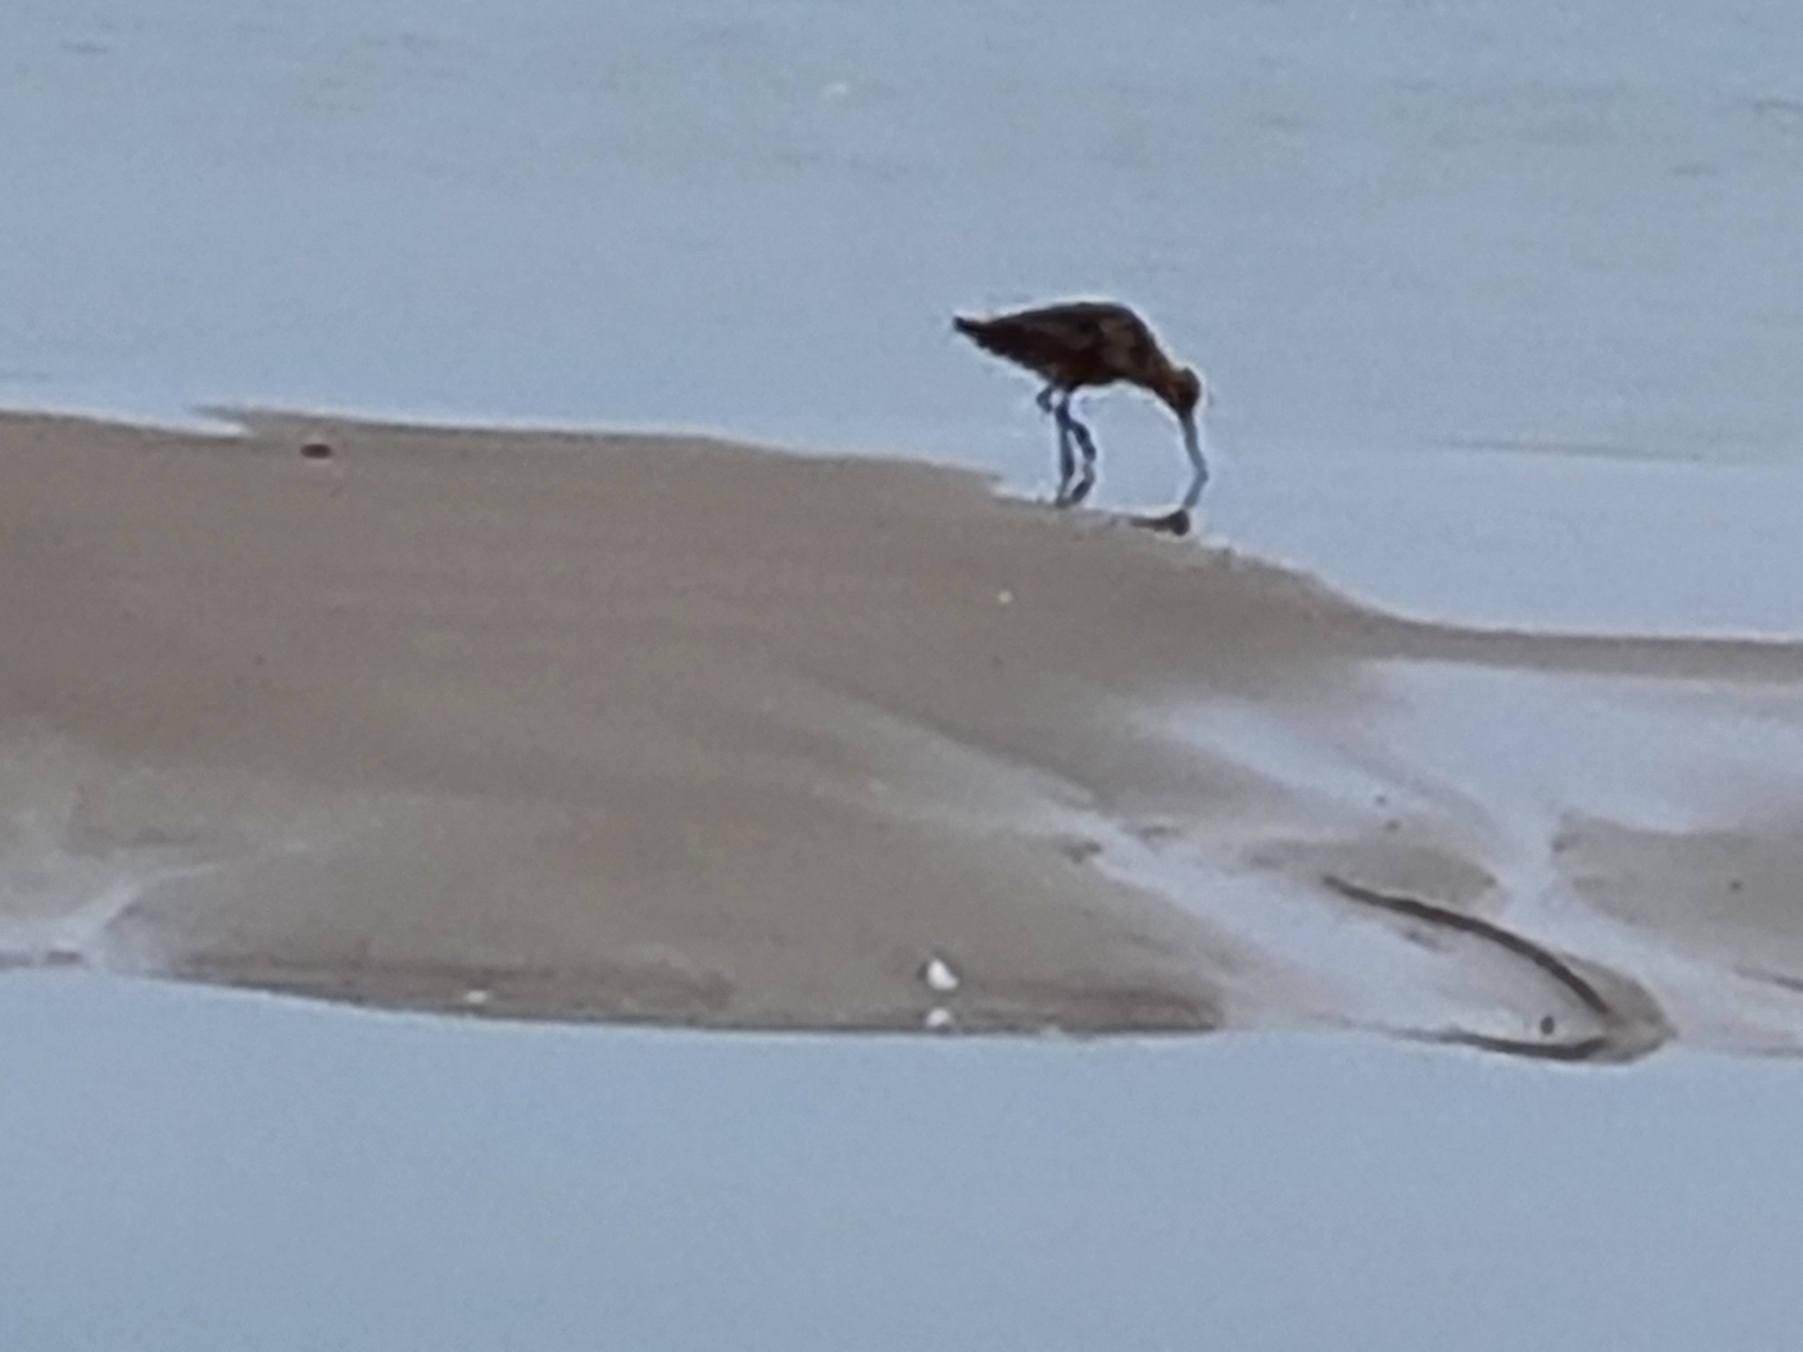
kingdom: Animalia
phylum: Chordata
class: Aves
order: Charadriiformes
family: Scolopacidae
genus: Limosa
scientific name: Limosa lapponica
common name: Lille kobbersneppe
